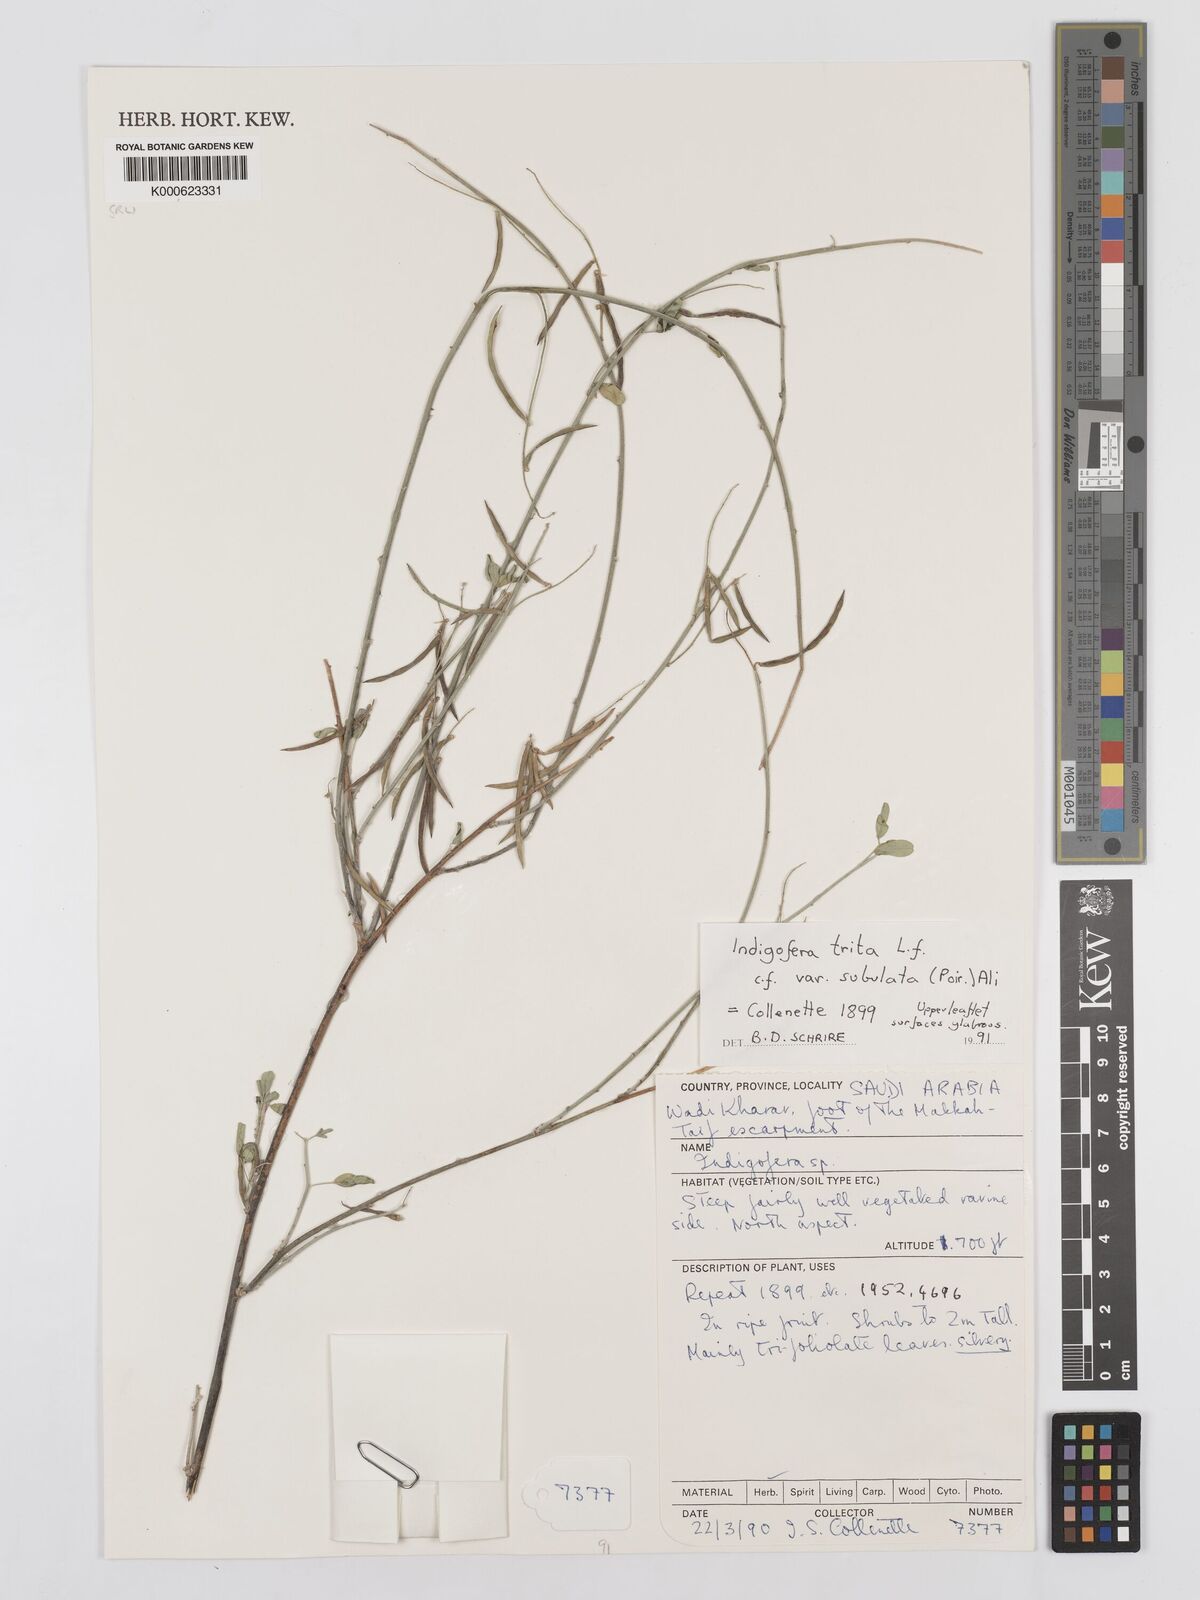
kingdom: Plantae
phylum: Tracheophyta
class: Magnoliopsida
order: Fabales
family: Fabaceae
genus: Indigofera
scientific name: Indigofera subulata
